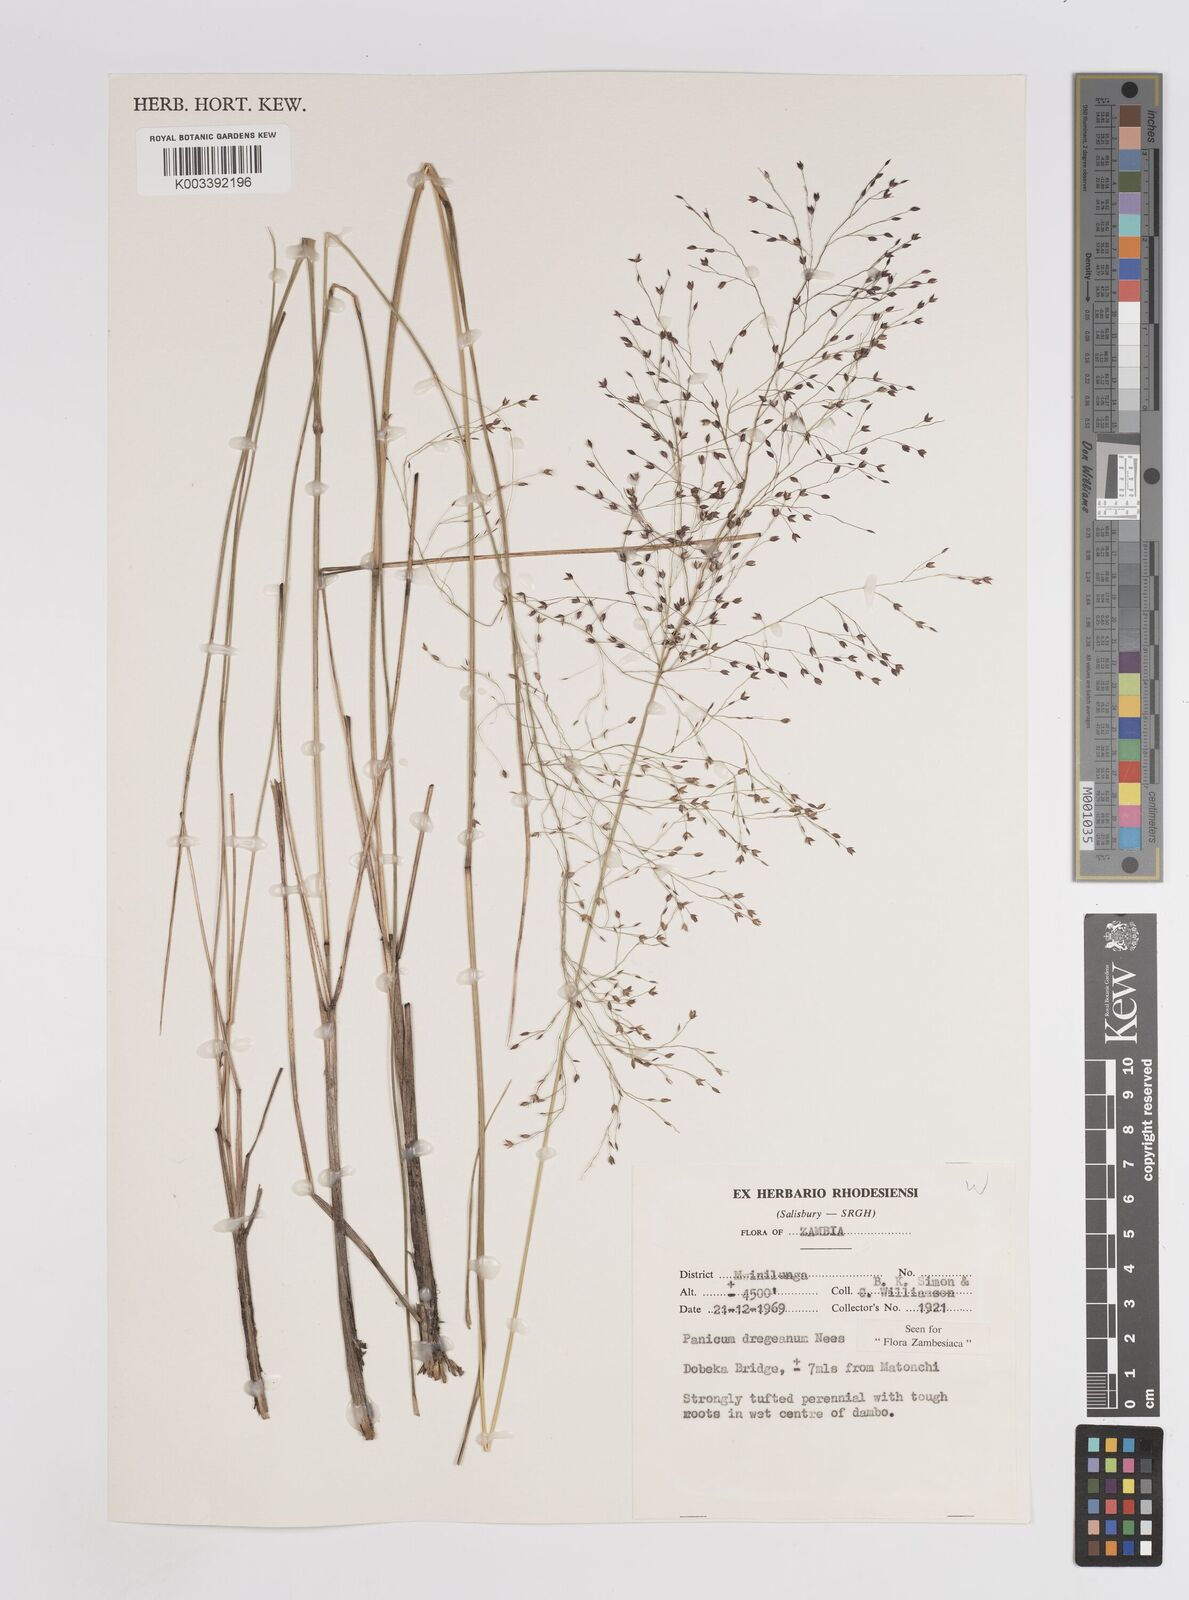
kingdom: Plantae
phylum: Tracheophyta
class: Liliopsida
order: Poales
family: Poaceae
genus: Panicum
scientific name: Panicum dregeanum
